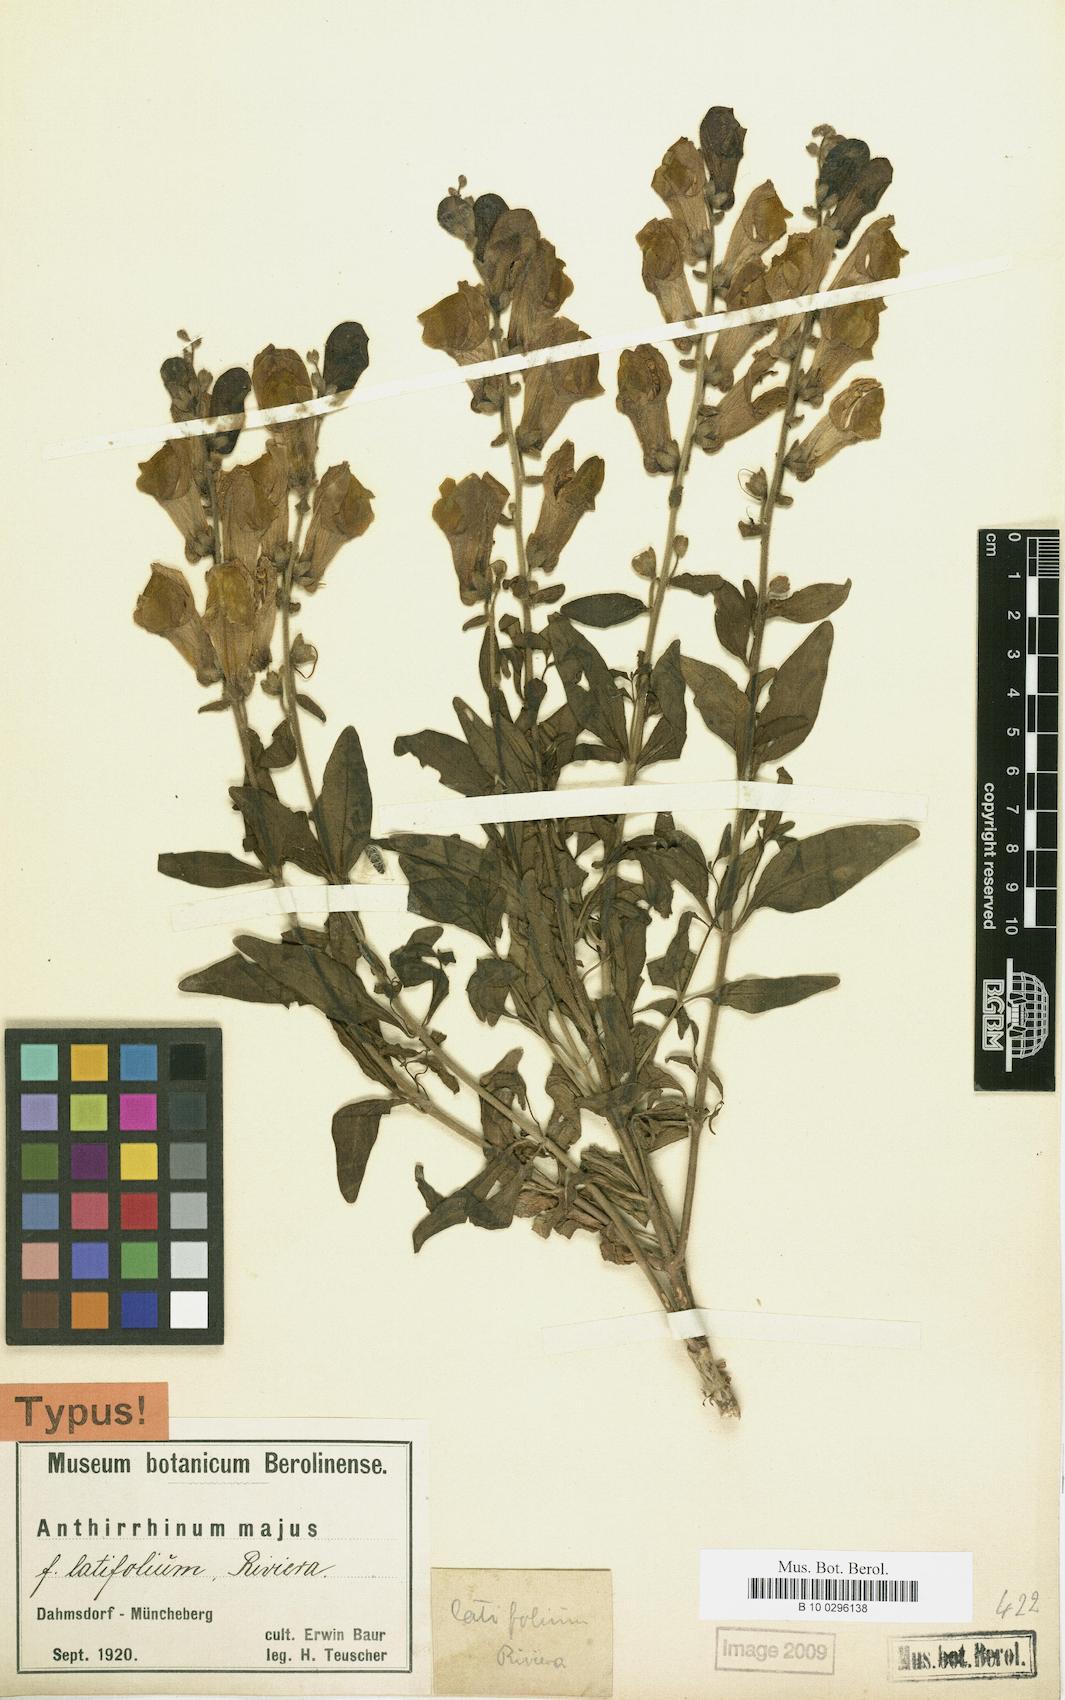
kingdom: Plantae
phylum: Tracheophyta
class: Magnoliopsida
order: Lamiales
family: Plantaginaceae
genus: Linaria
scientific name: Linaria latifolia
